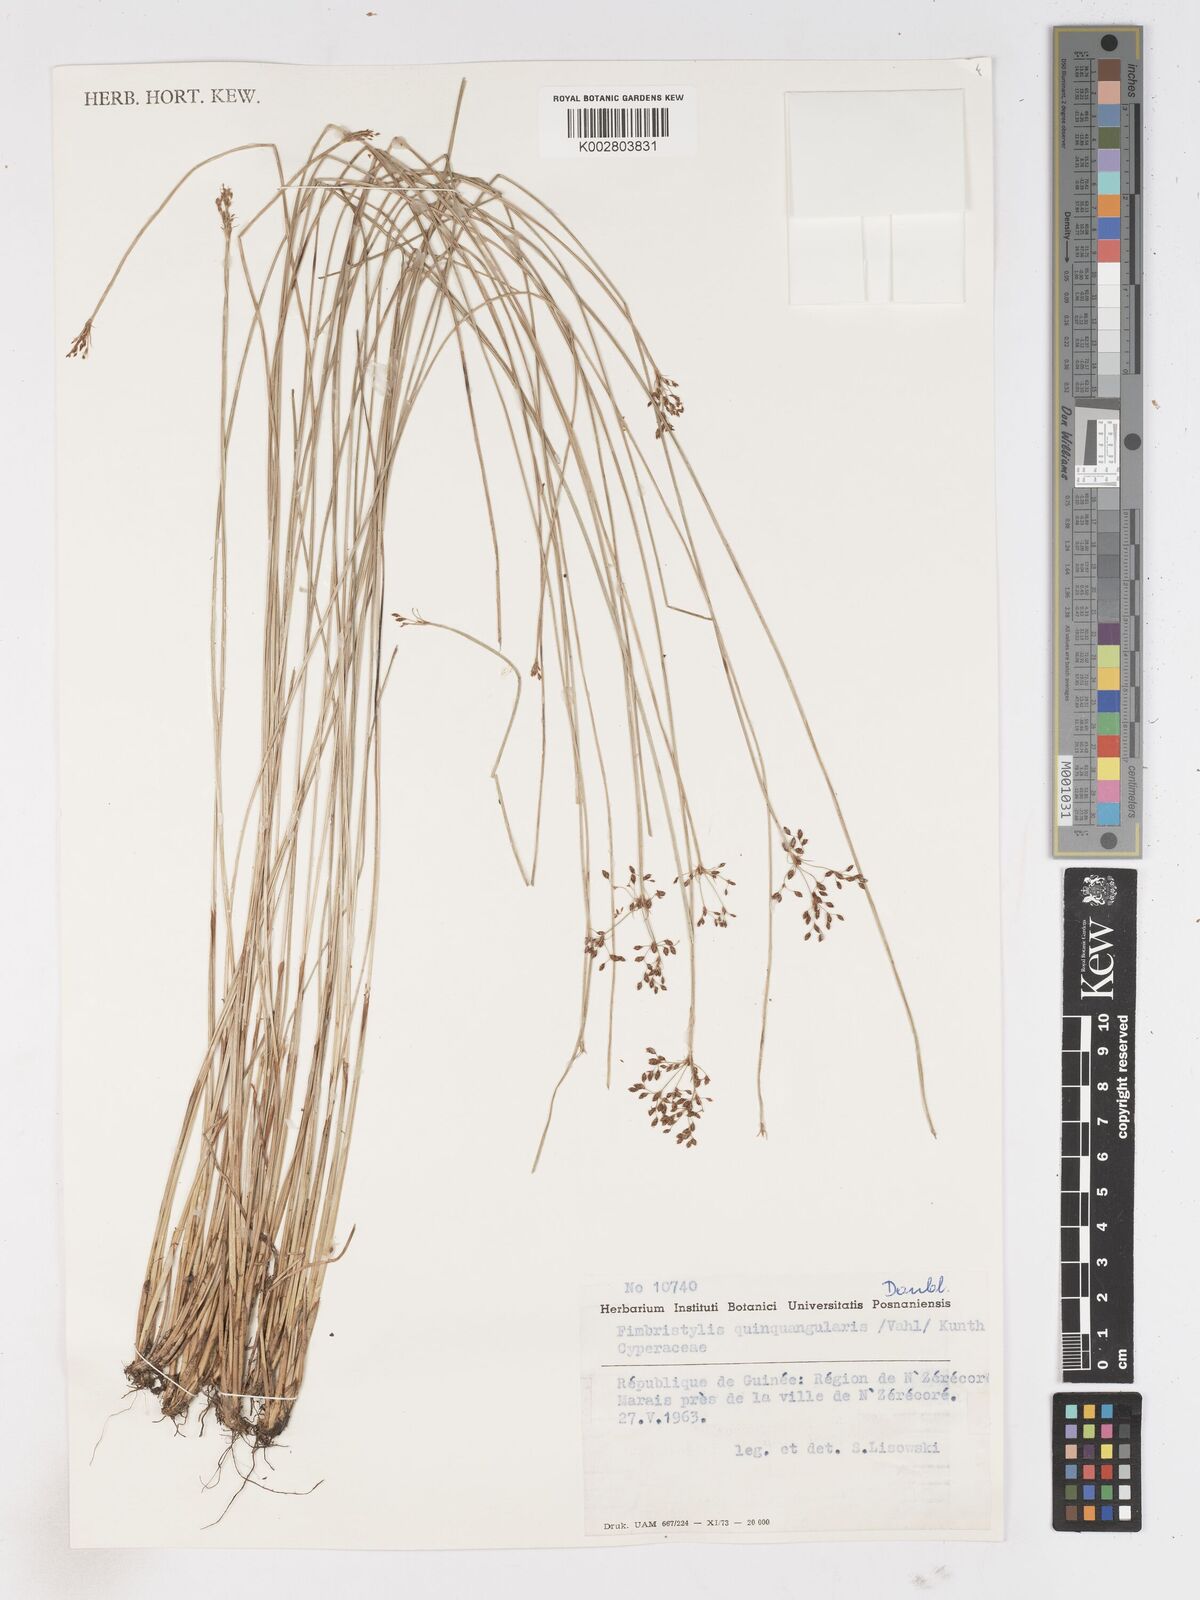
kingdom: Plantae
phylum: Tracheophyta
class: Liliopsida
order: Poales
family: Cyperaceae
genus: Fimbristylis
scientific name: Fimbristylis quinquangularis
